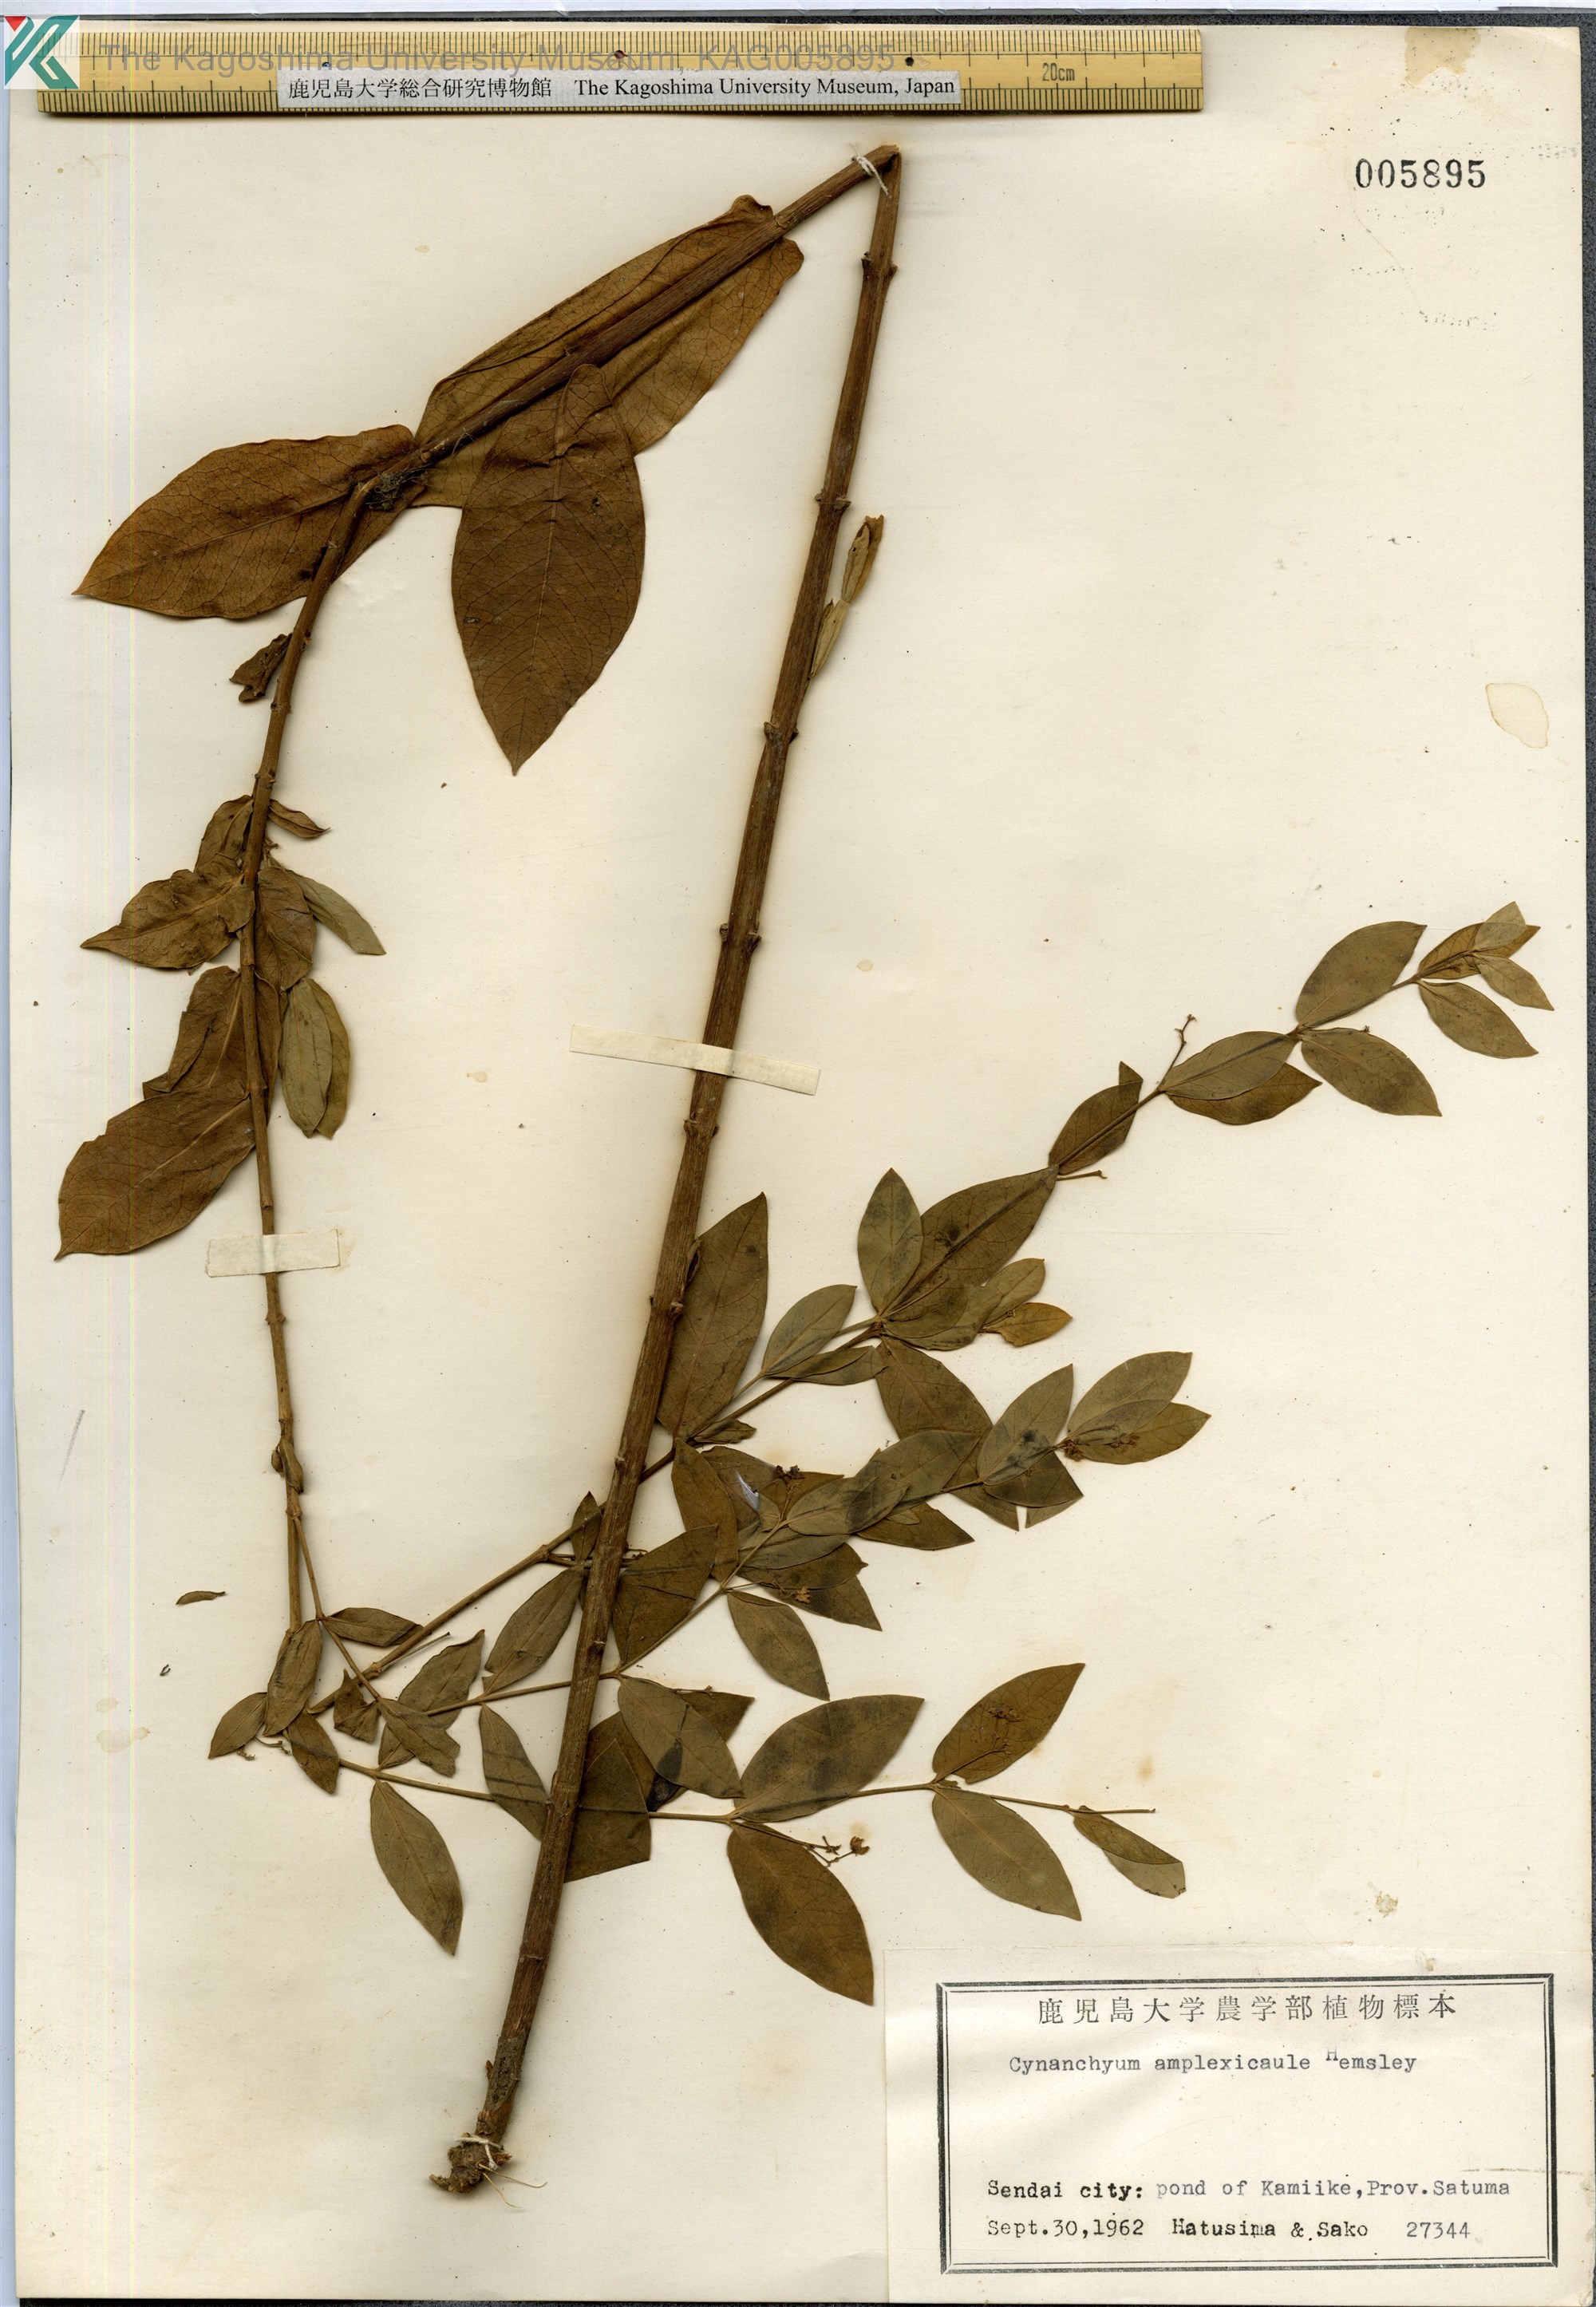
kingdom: Plantae
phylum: Tracheophyta
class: Magnoliopsida
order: Gentianales
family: Apocynaceae
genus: Vincetoxicum
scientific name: Vincetoxicum amplexicaule
